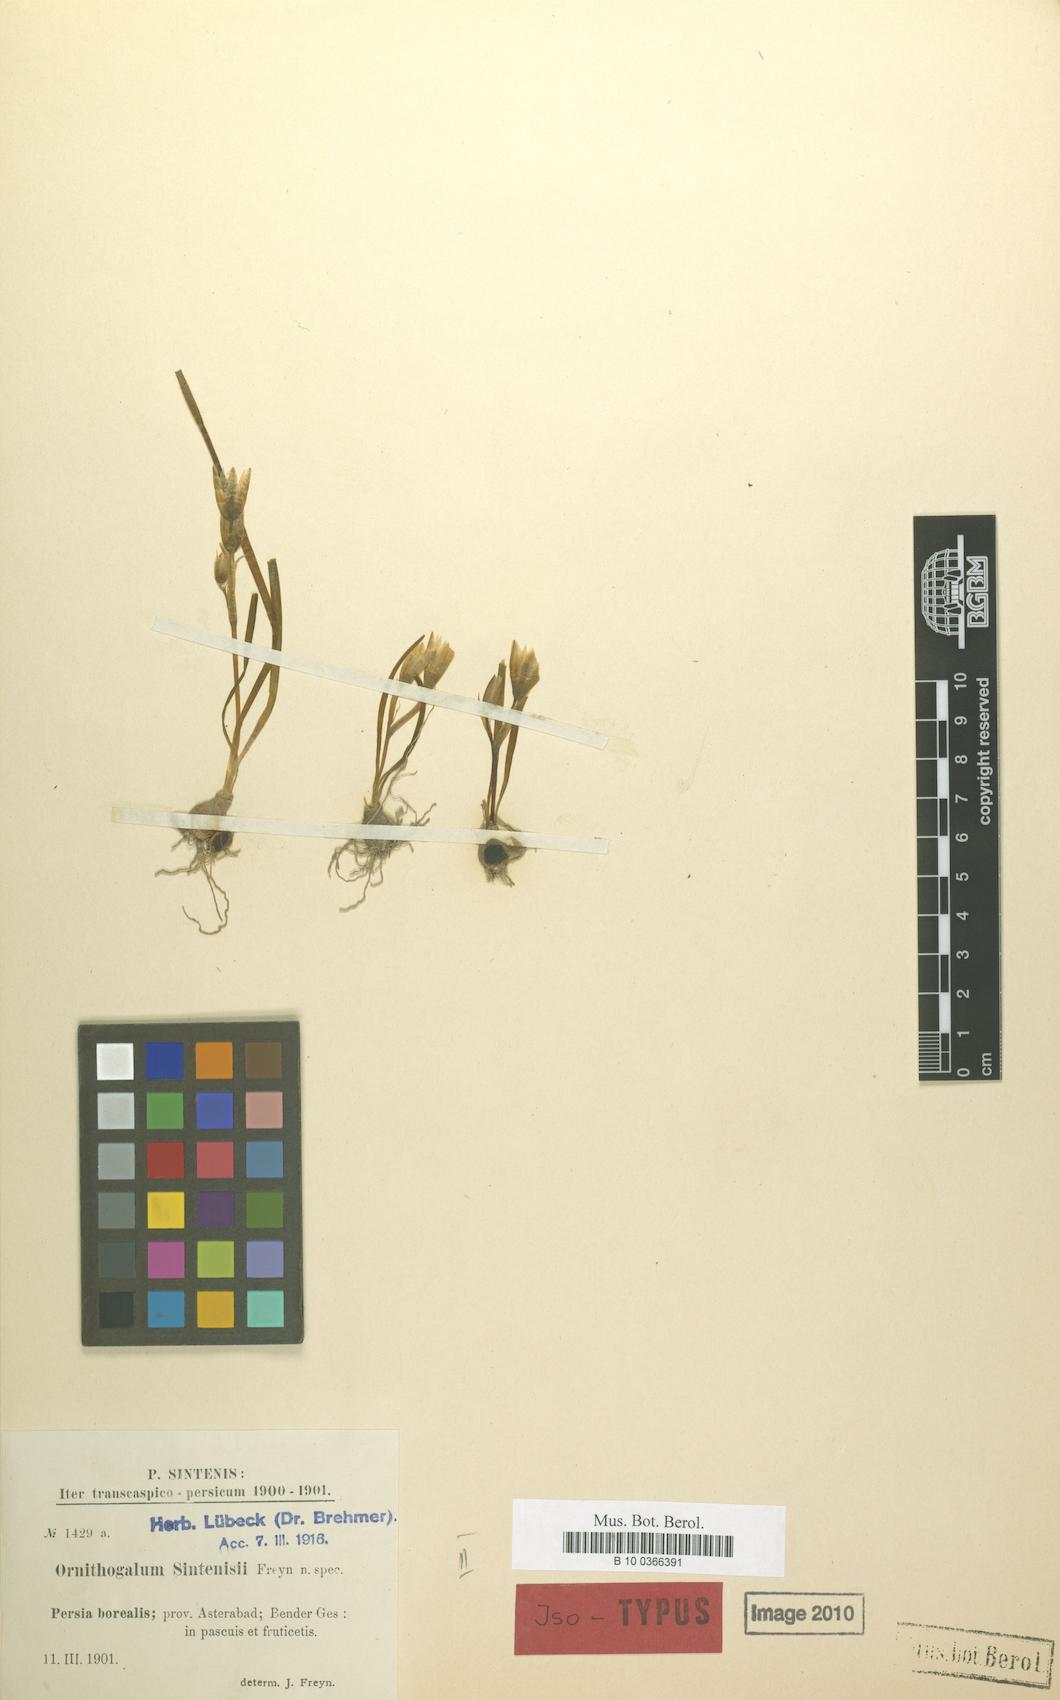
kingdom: Plantae
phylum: Tracheophyta
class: Liliopsida
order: Asparagales
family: Asparagaceae
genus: Ornithogalum
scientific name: Ornithogalum sintenisii
